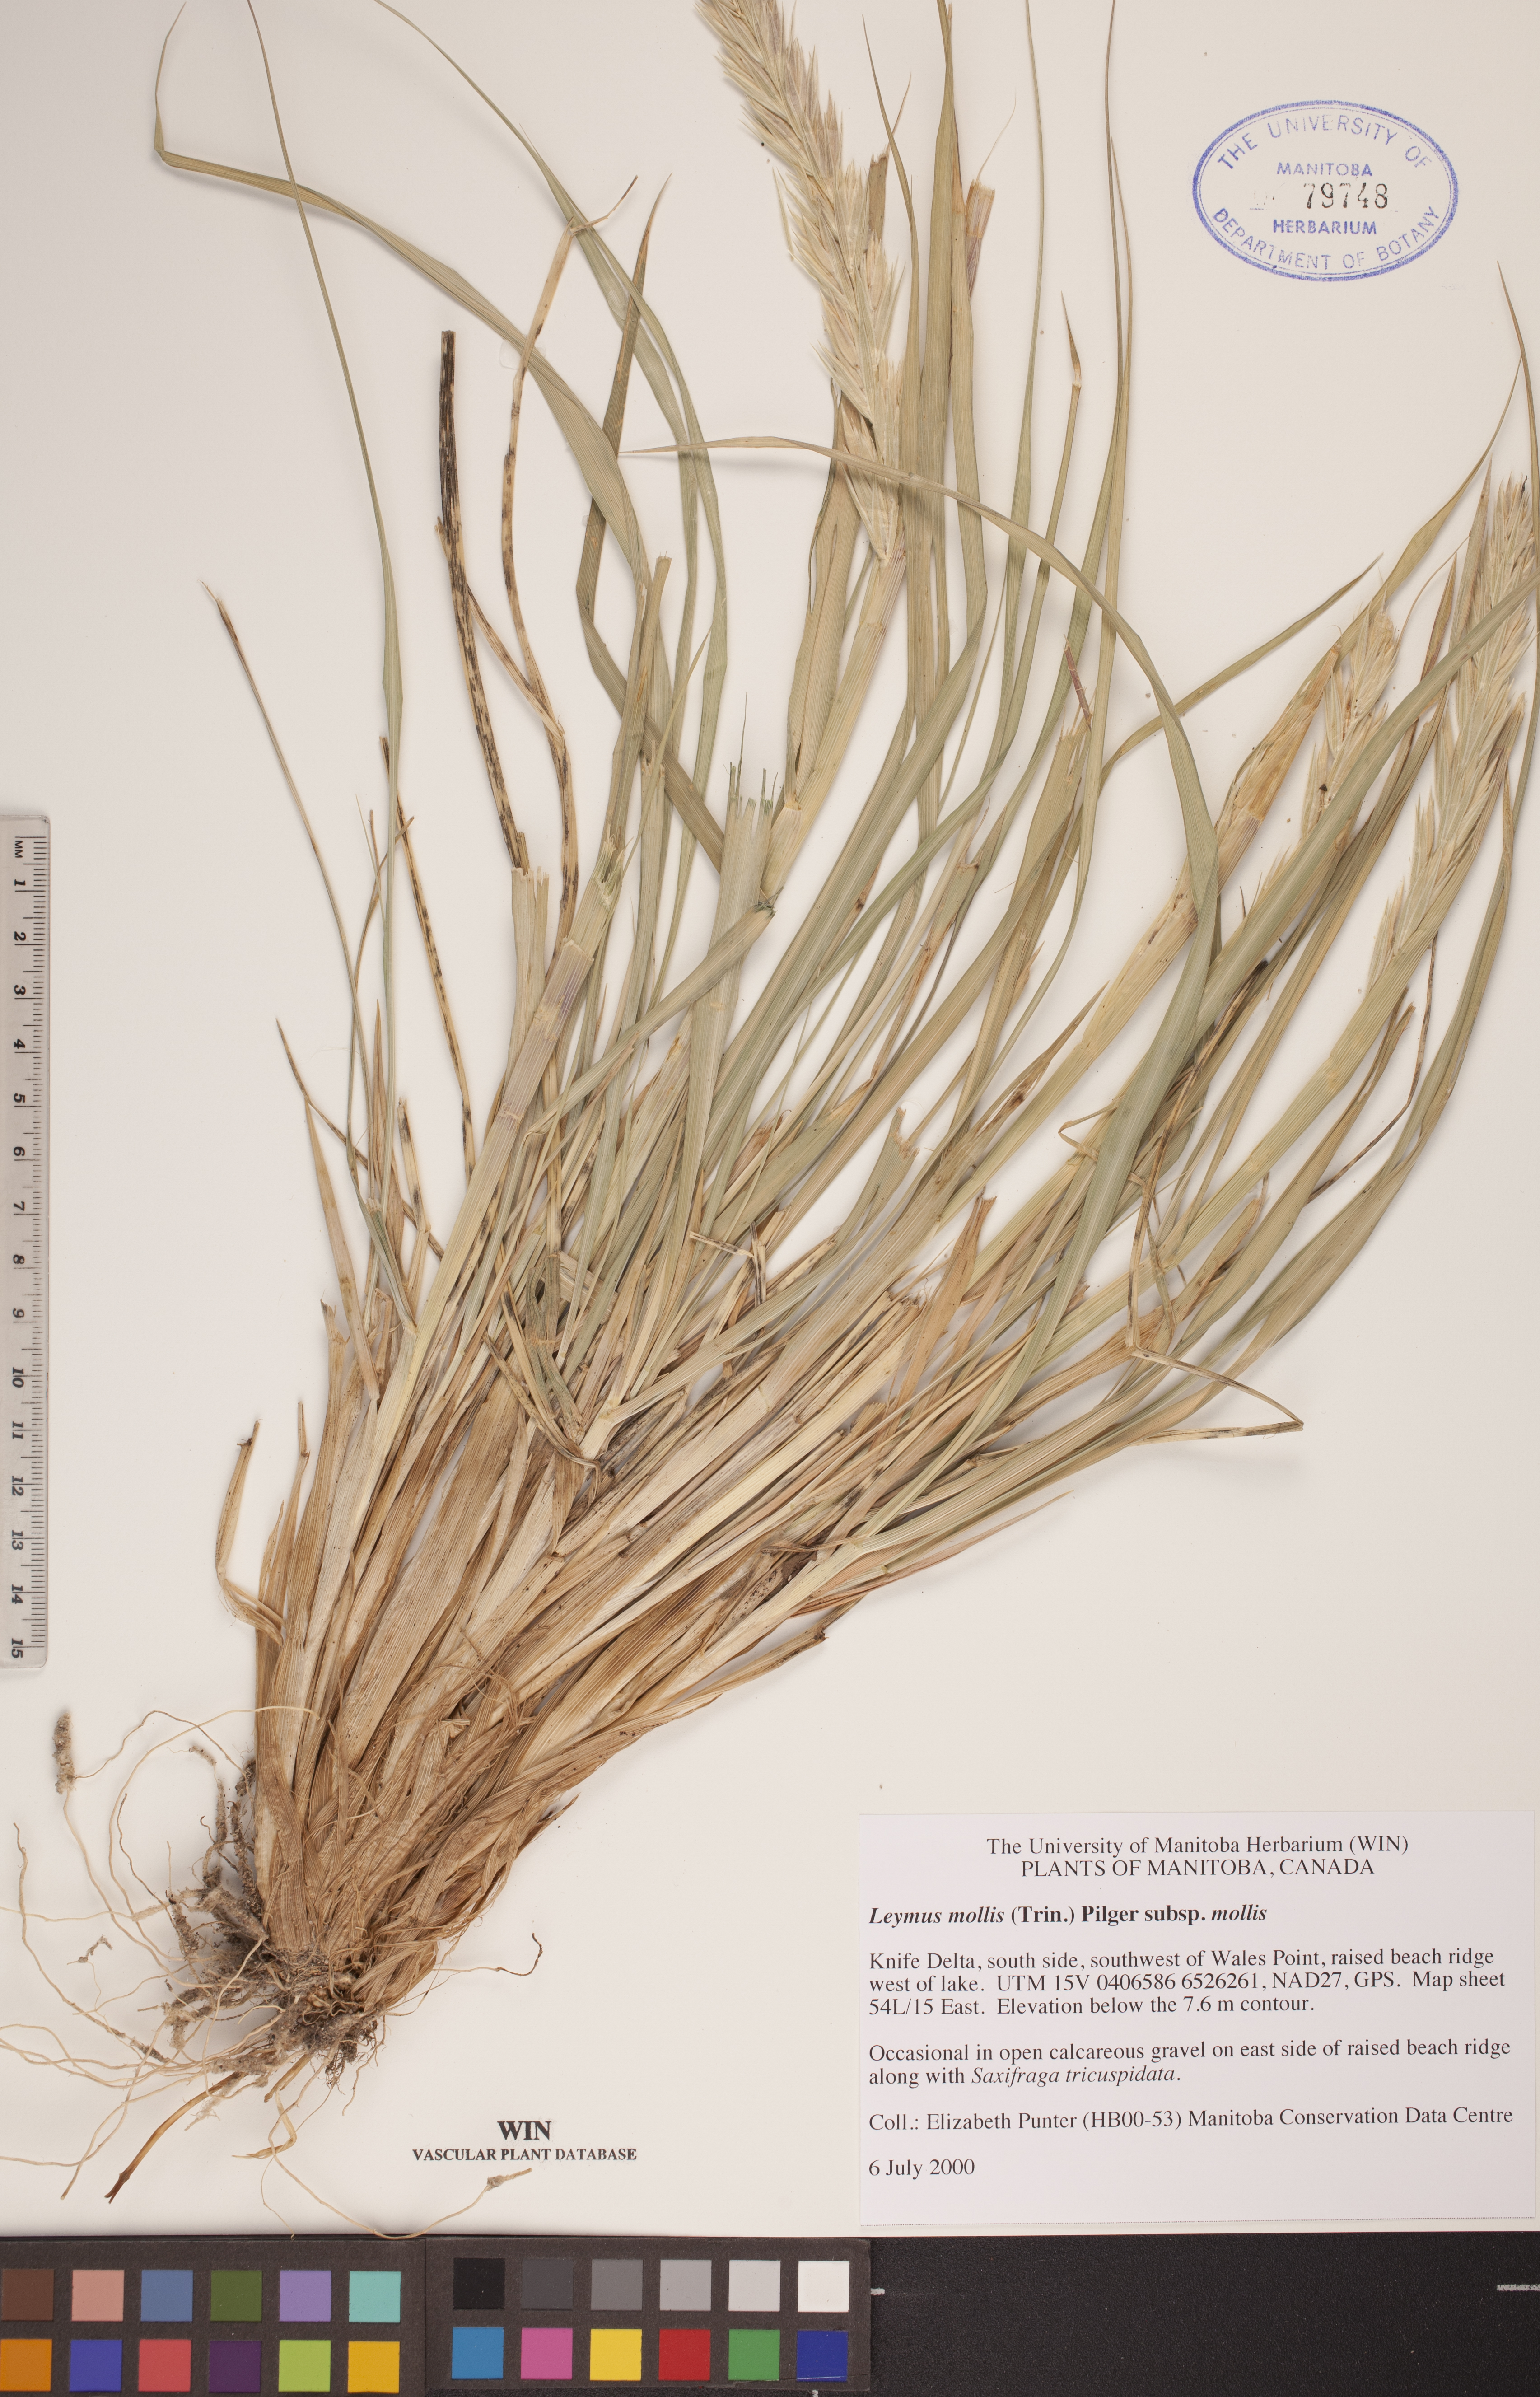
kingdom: Plantae
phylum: Tracheophyta
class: Liliopsida
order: Poales
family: Poaceae
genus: Leymus
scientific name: Leymus mollis
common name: American dune grass
